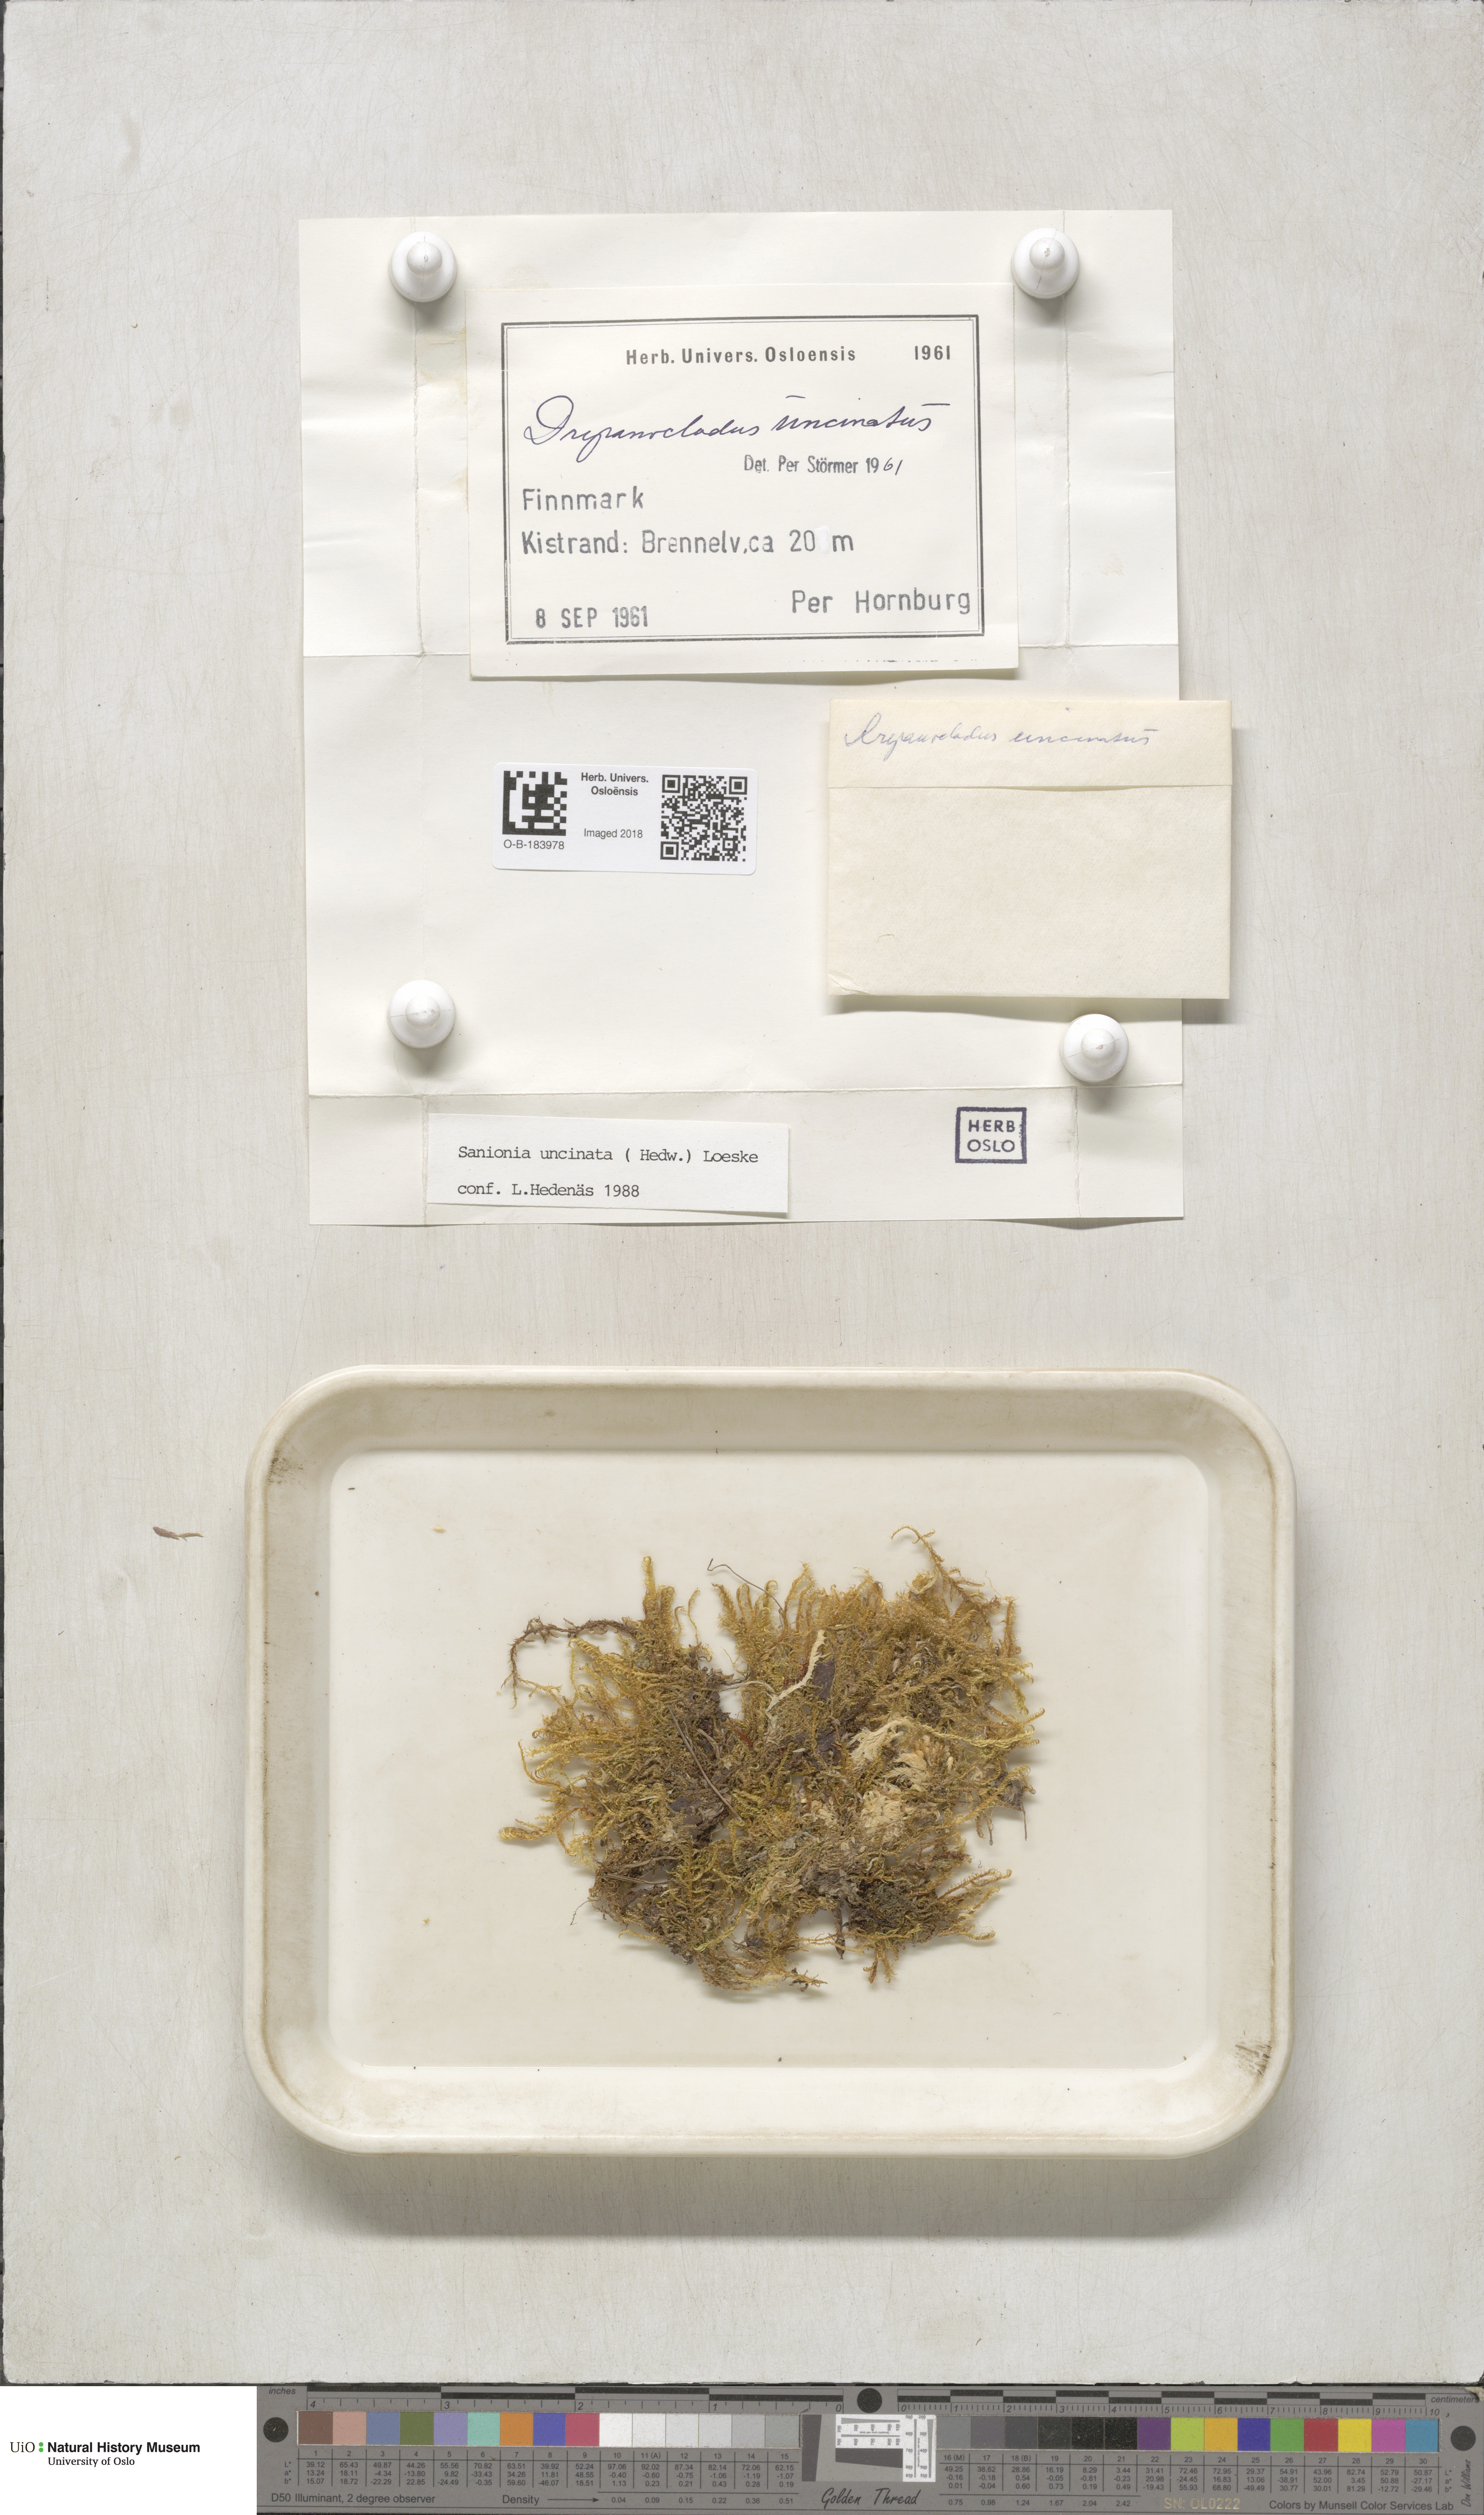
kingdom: Plantae
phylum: Bryophyta
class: Bryopsida
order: Hypnales
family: Scorpidiaceae
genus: Sanionia
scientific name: Sanionia uncinata
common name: Sickle moss
